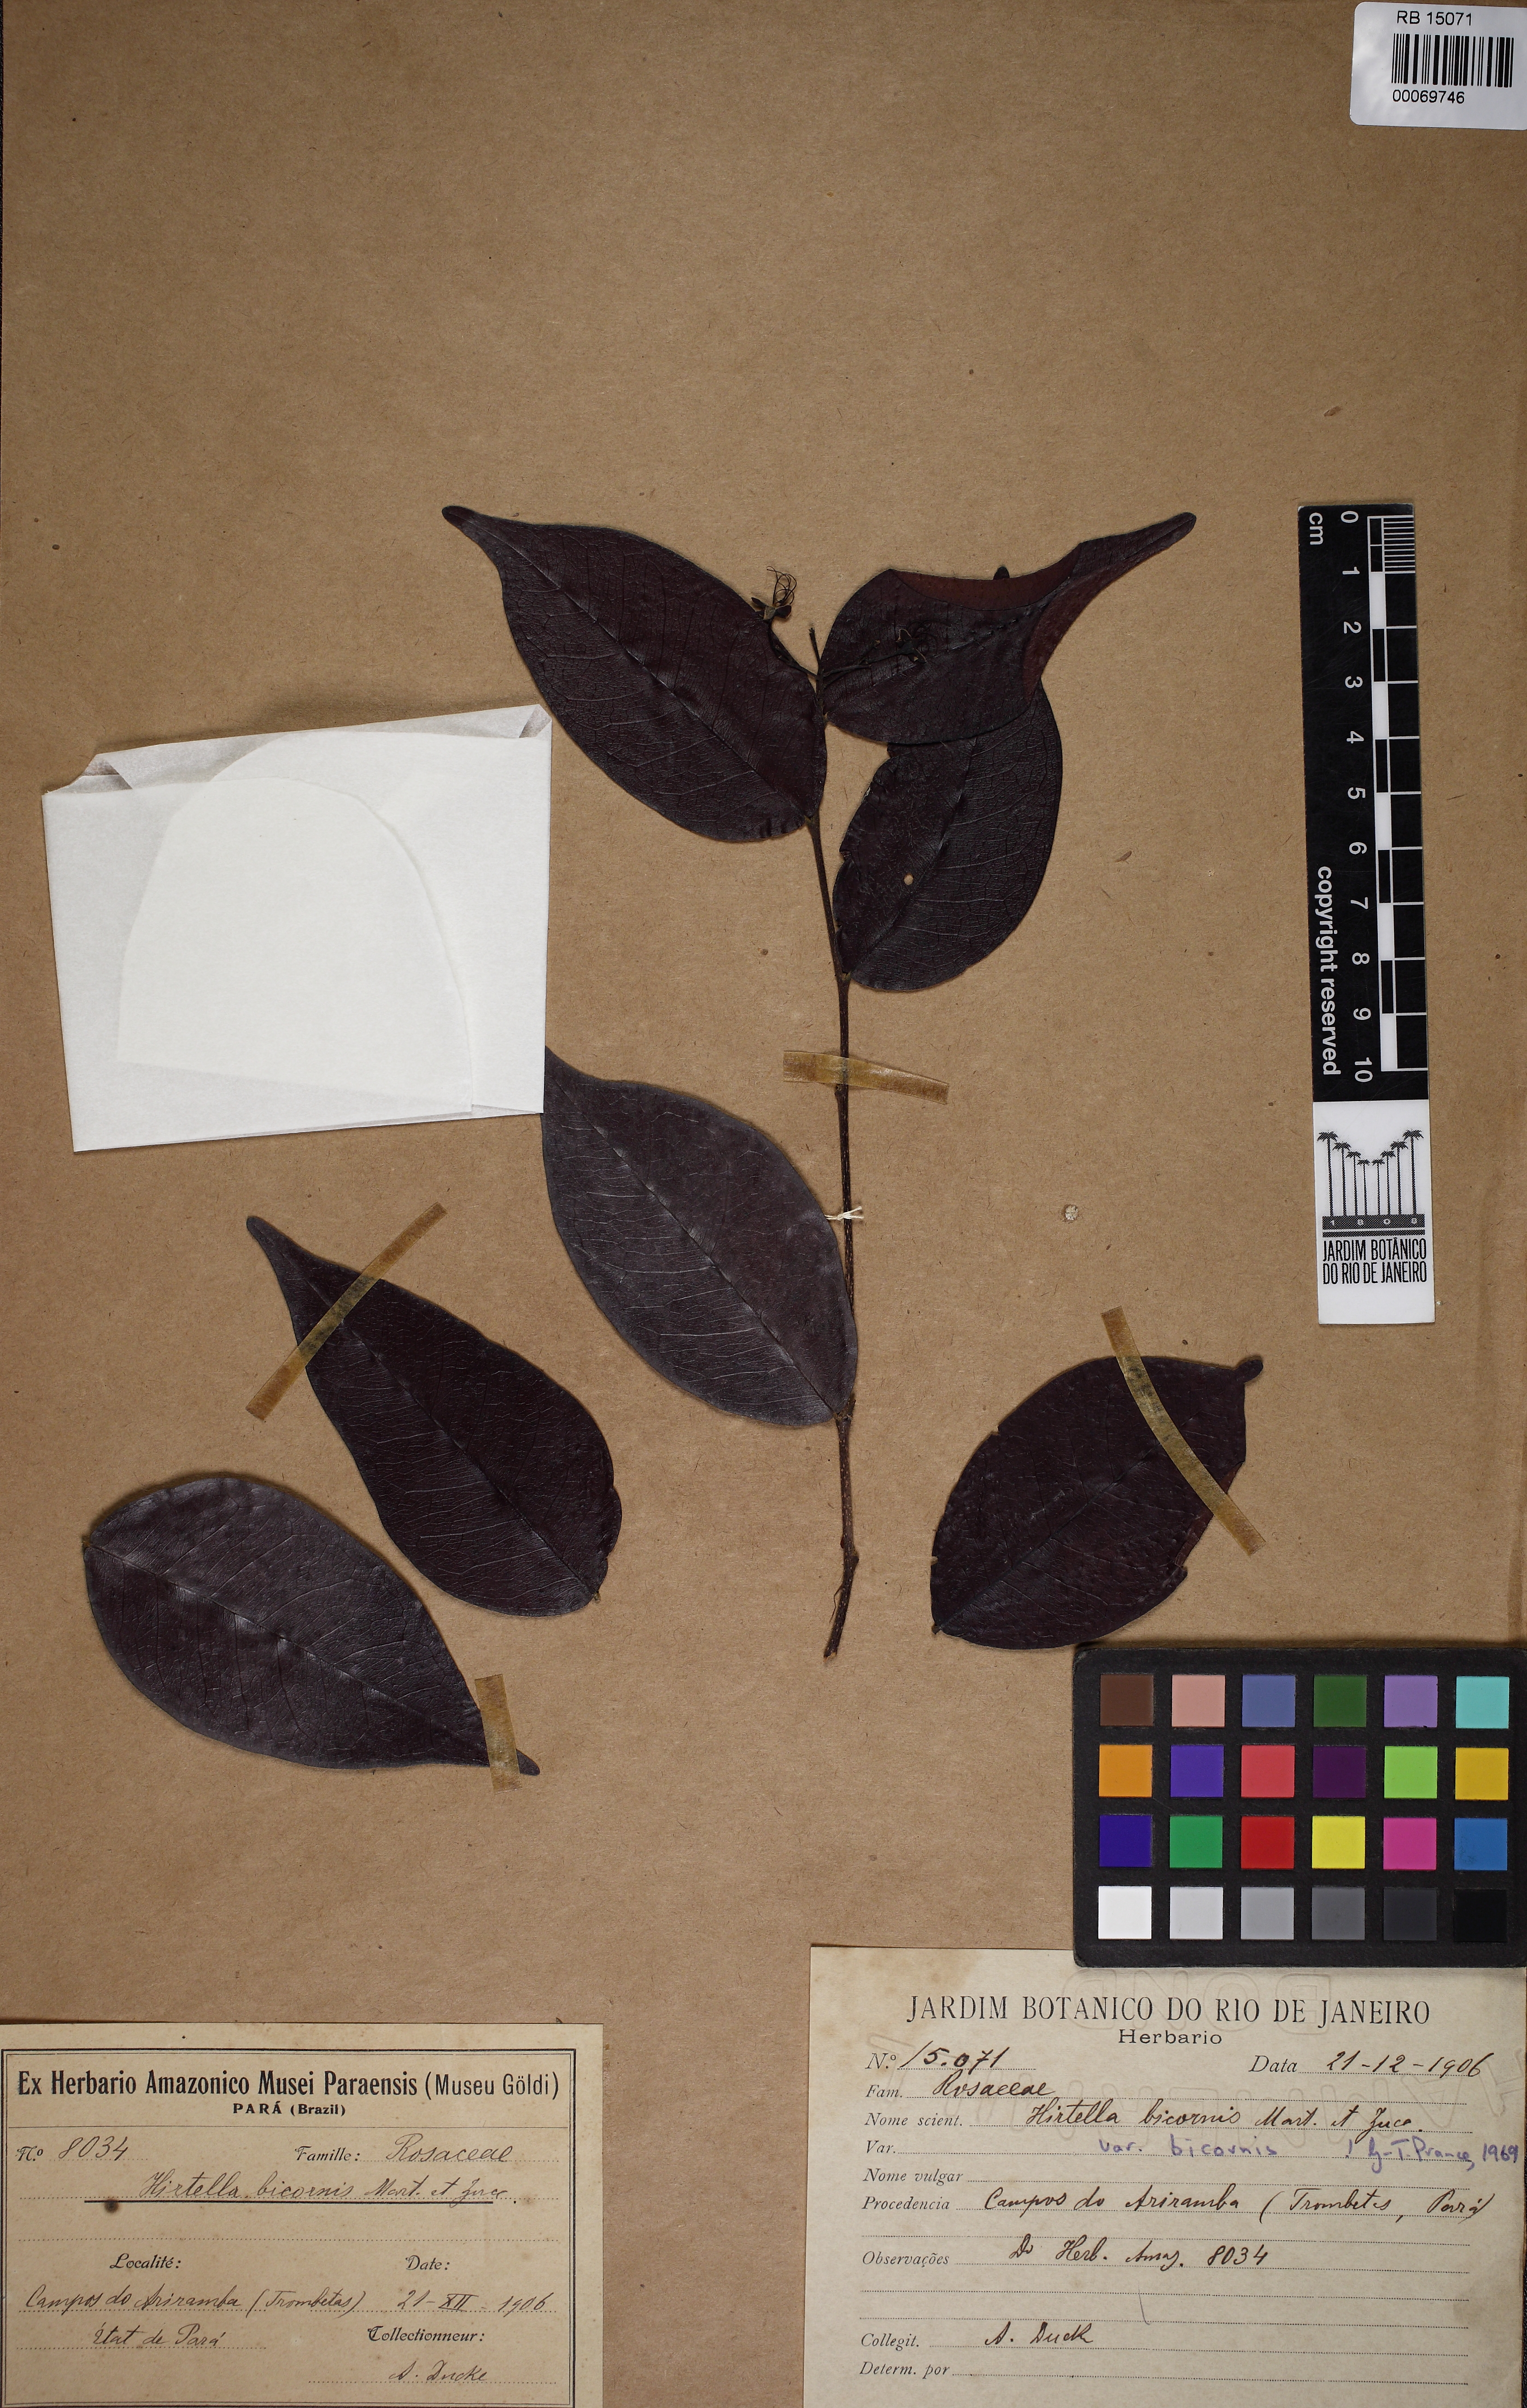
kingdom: Plantae
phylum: Tracheophyta
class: Magnoliopsida
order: Malpighiales
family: Chrysobalanaceae
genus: Hirtella
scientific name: Hirtella bicornis
